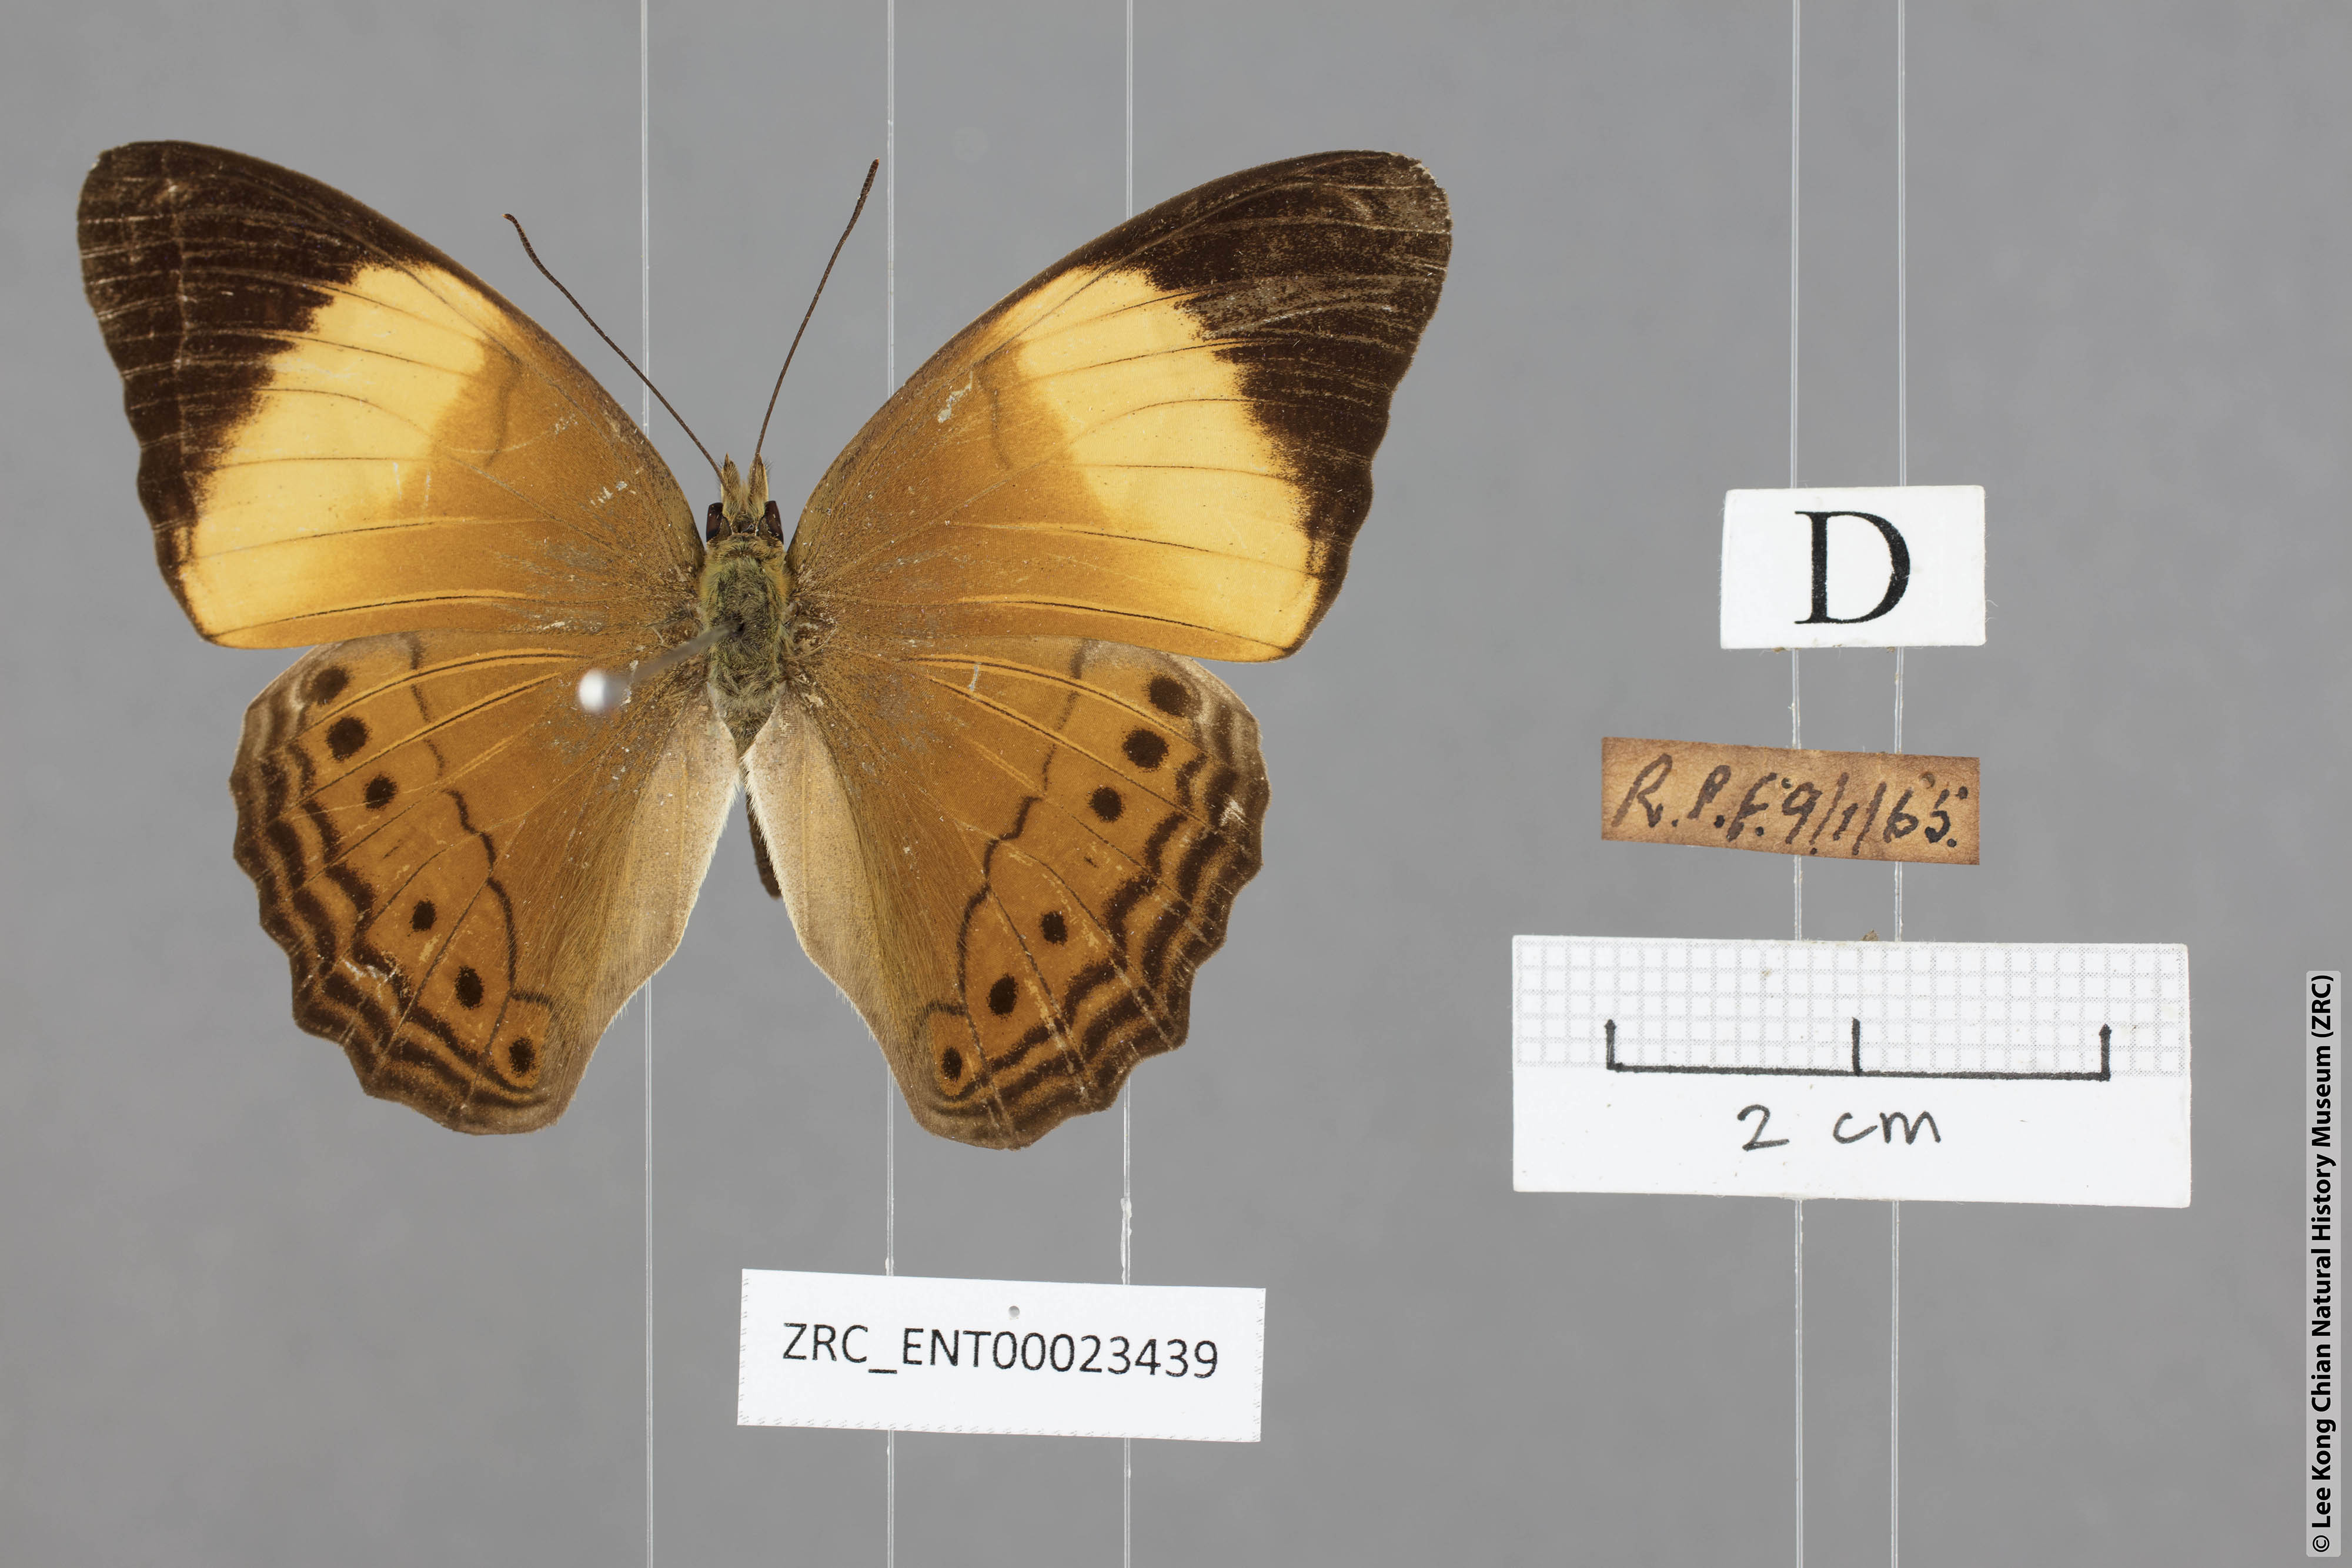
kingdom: Animalia
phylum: Arthropoda
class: Insecta
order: Lepidoptera
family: Nymphalidae
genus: Cirrochroa
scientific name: Cirrochroa orissa
